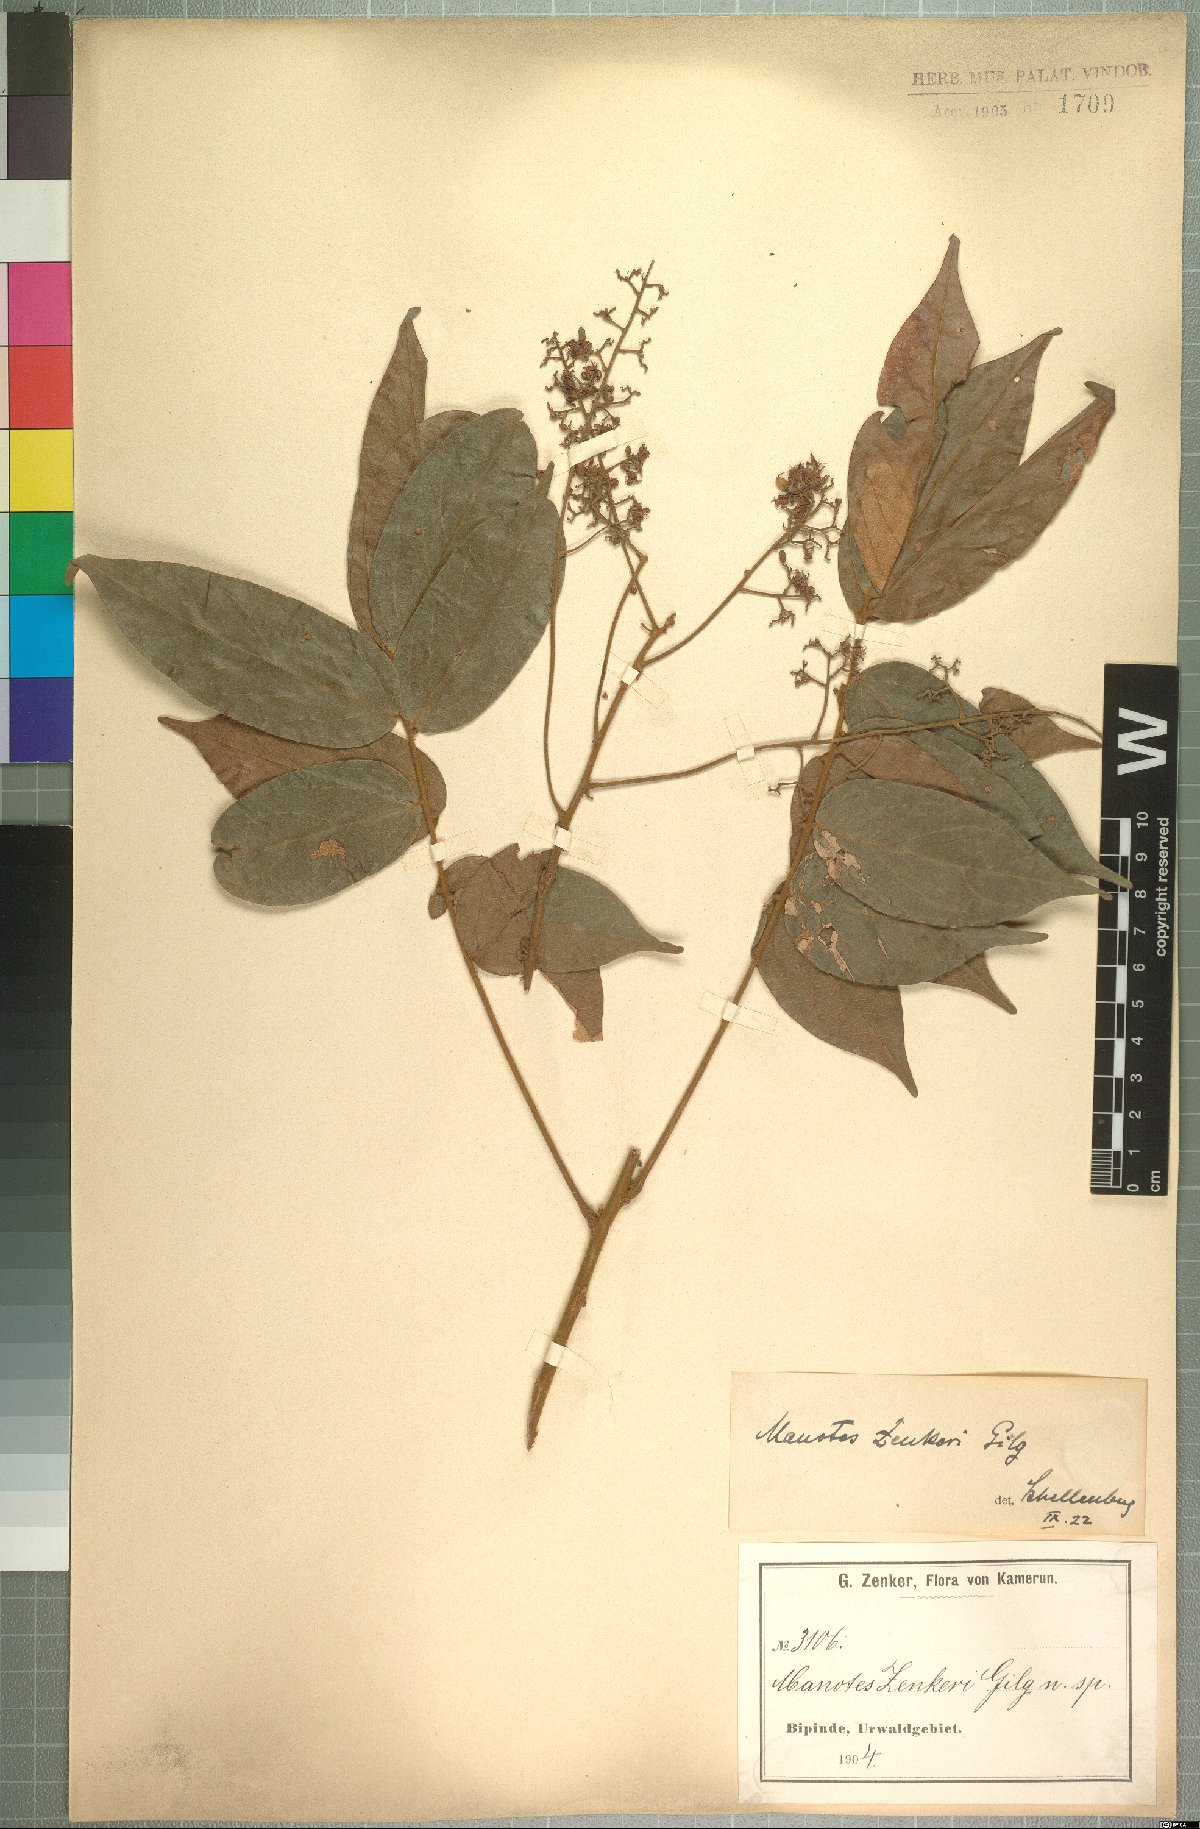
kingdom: Plantae
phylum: Tracheophyta
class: Magnoliopsida
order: Oxalidales
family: Connaraceae
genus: Manotes
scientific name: Manotes griffoniana
